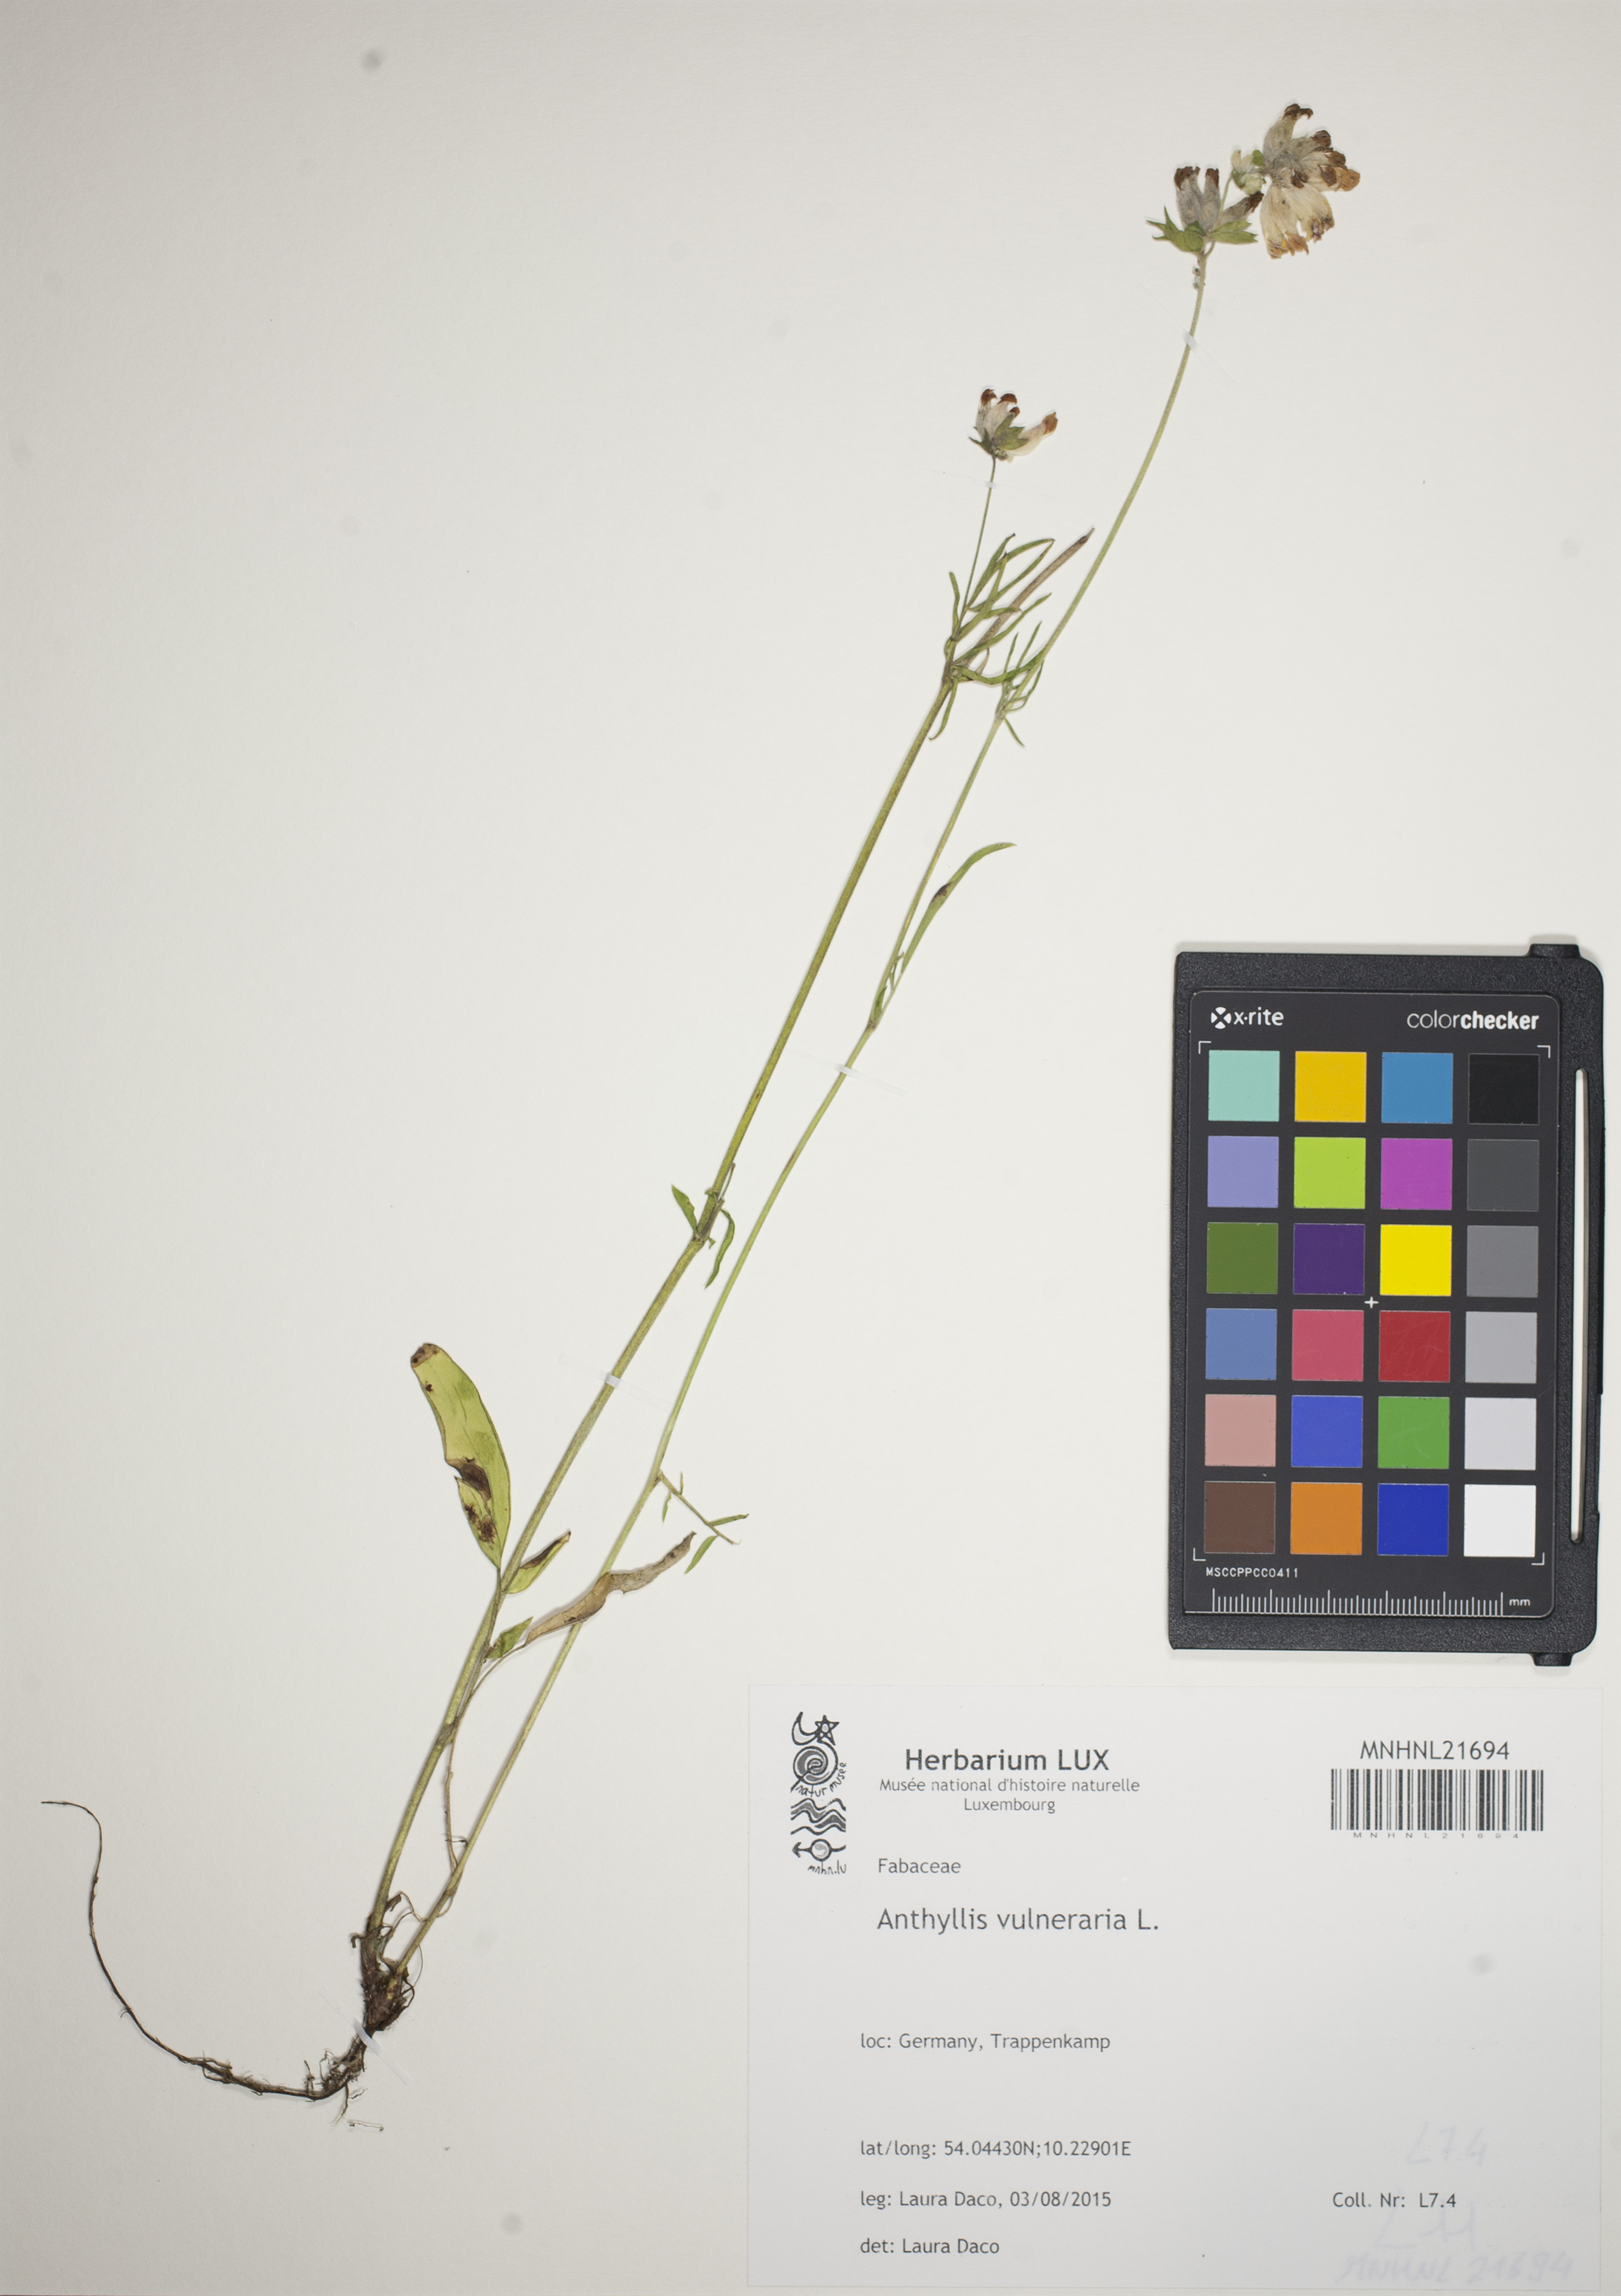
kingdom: Plantae
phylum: Tracheophyta
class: Magnoliopsida
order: Fabales
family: Fabaceae
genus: Anthyllis
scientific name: Anthyllis vulneraria
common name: Kidney vetch
